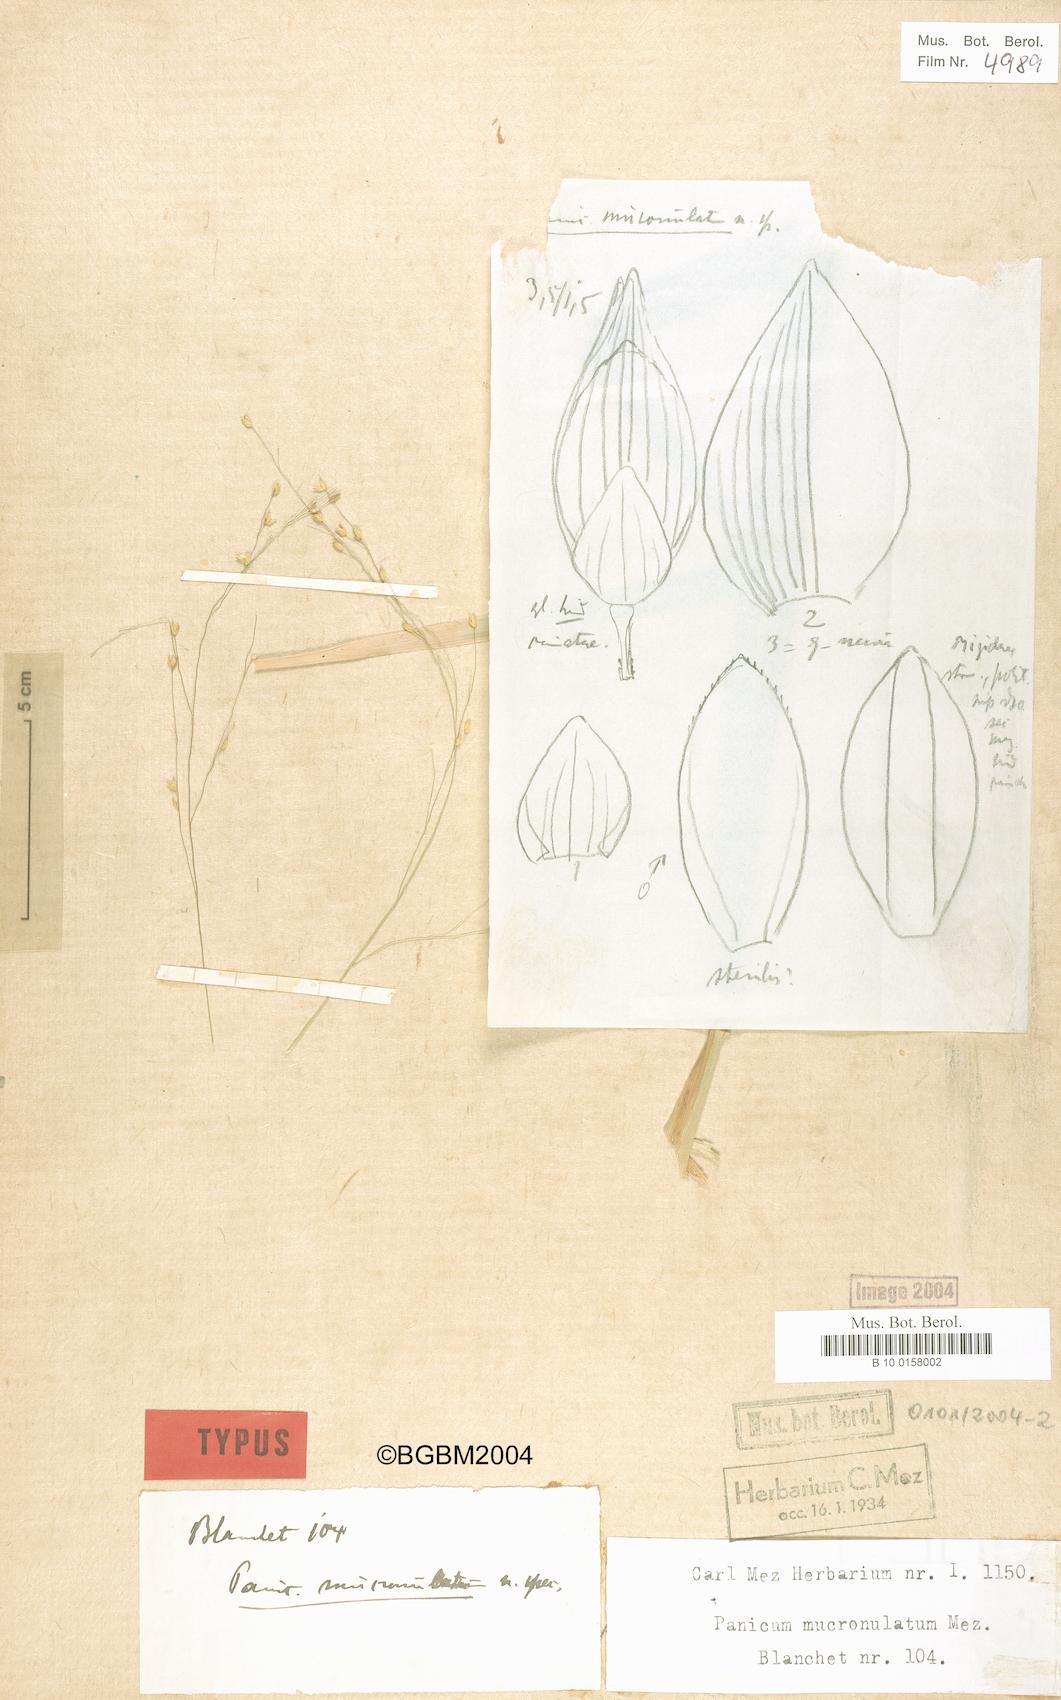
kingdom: Plantae
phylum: Tracheophyta
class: Liliopsida
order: Poales
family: Poaceae
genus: Panicum
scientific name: Panicum mucronulatum
